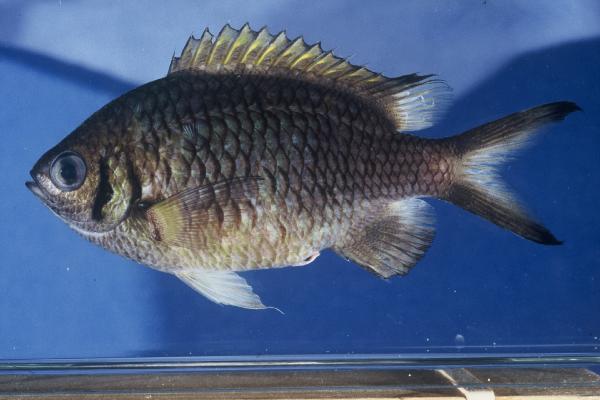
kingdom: Animalia
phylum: Chordata
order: Perciformes
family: Pomacentridae
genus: Chromis
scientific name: Chromis weberi
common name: Weber's chromis
